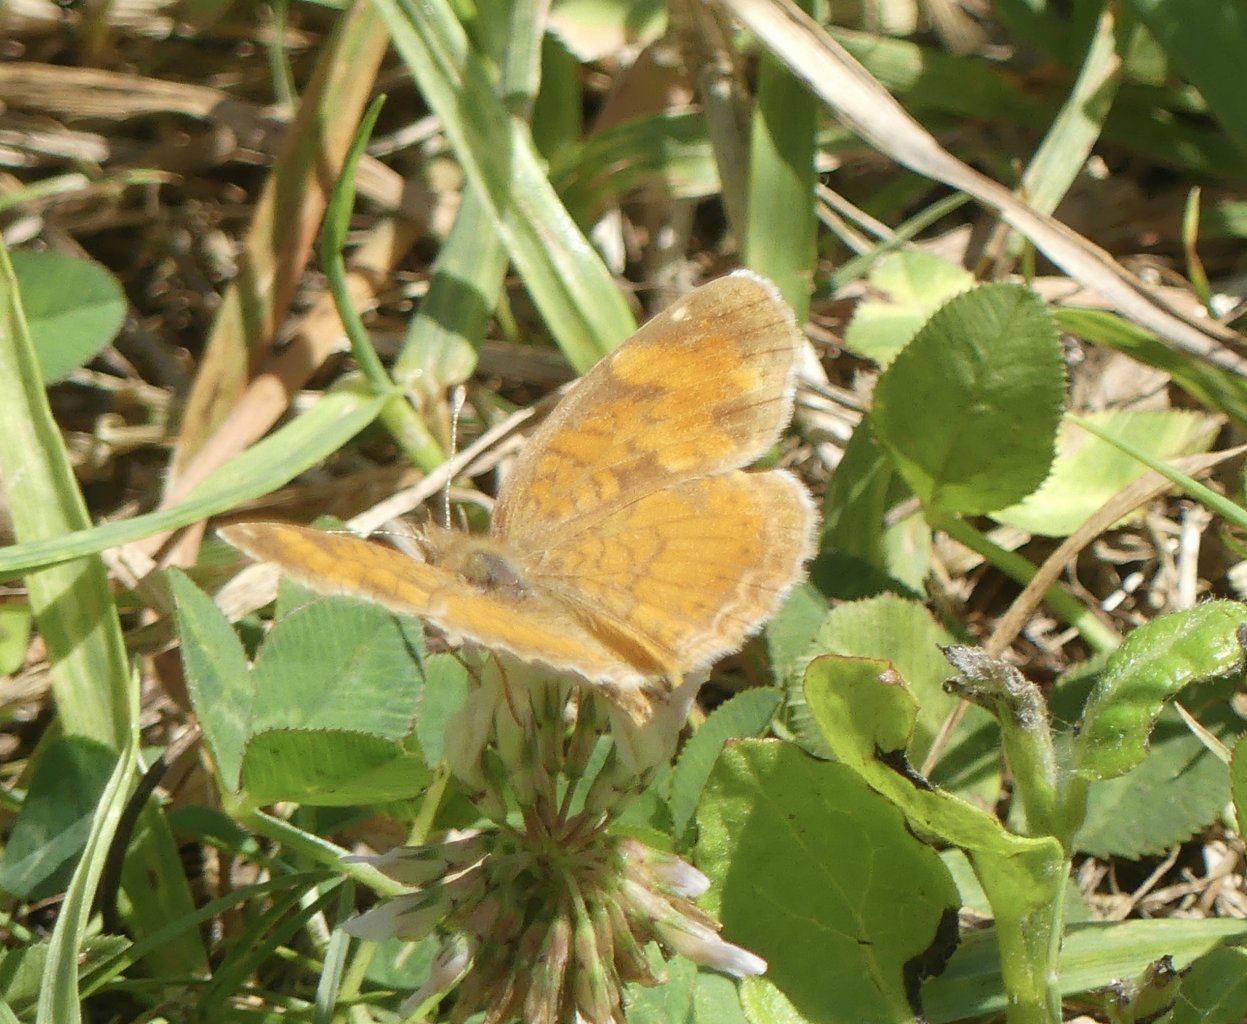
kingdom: Animalia
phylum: Arthropoda
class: Insecta
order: Lepidoptera
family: Nymphalidae
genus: Phyciodes
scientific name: Phyciodes tharos
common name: Pearl Crescent
